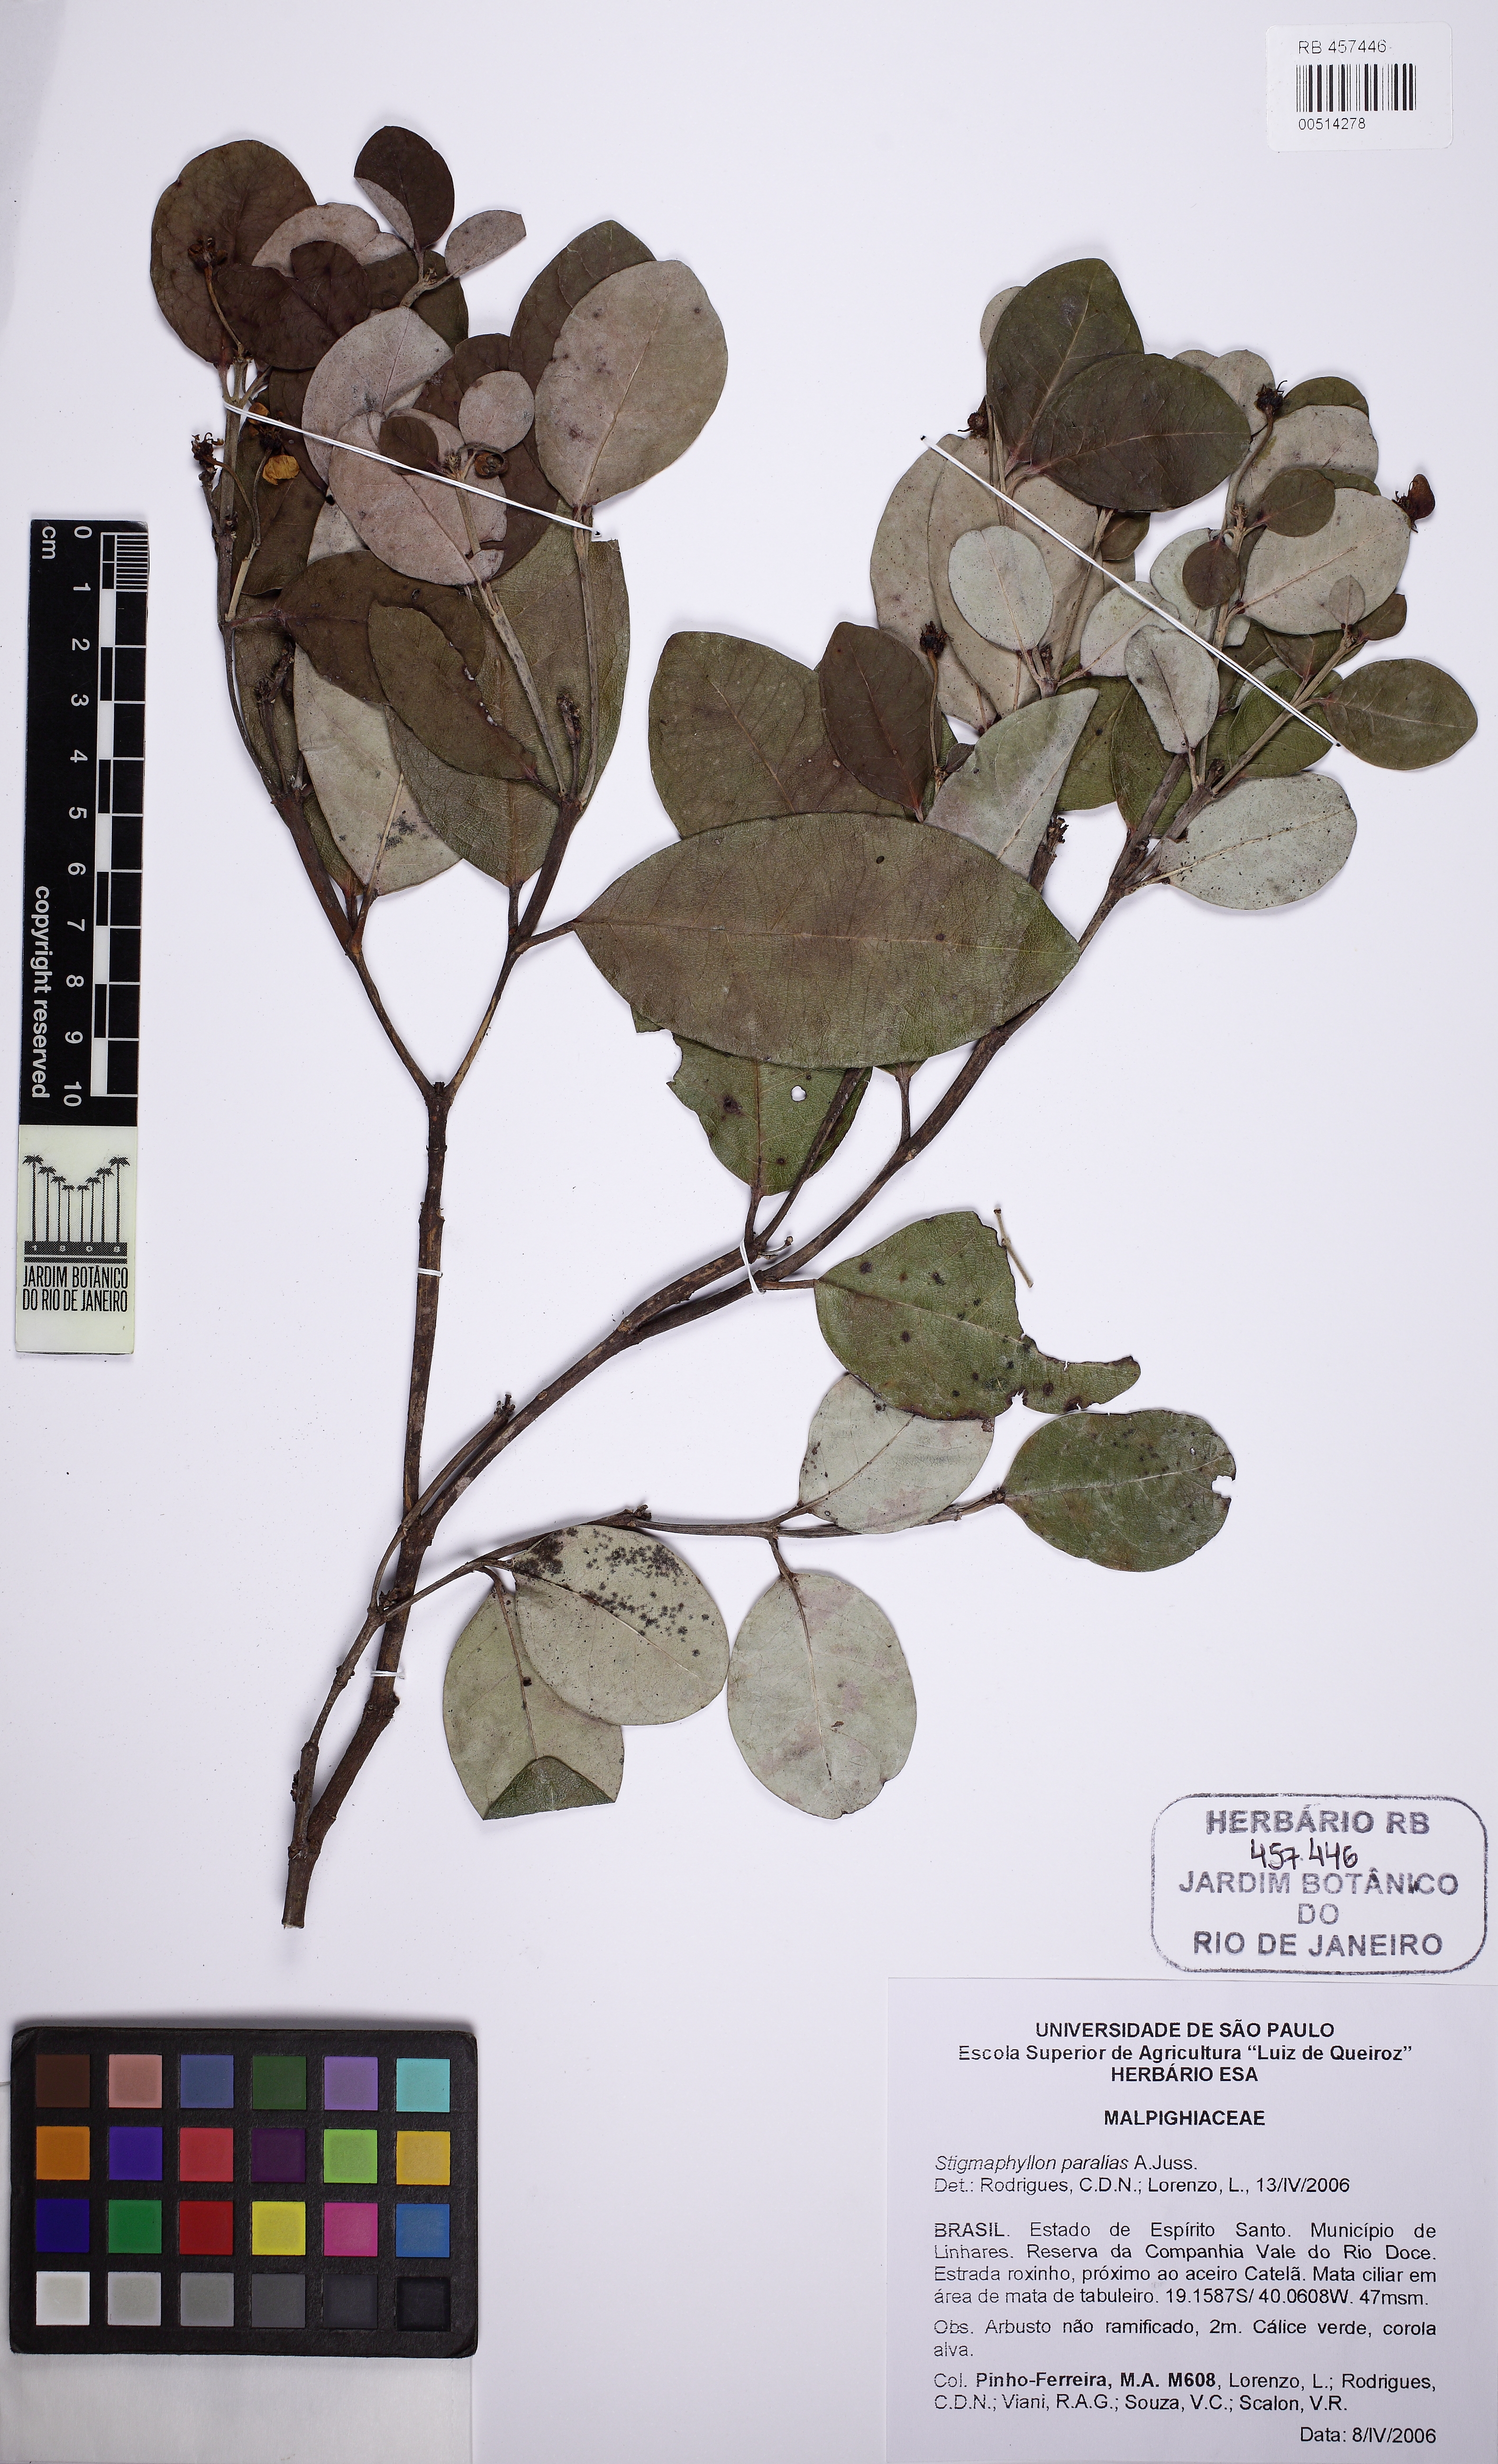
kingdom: Plantae
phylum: Tracheophyta
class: Magnoliopsida
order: Malpighiales
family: Malpighiaceae
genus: Stigmaphyllon
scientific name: Stigmaphyllon paralias
